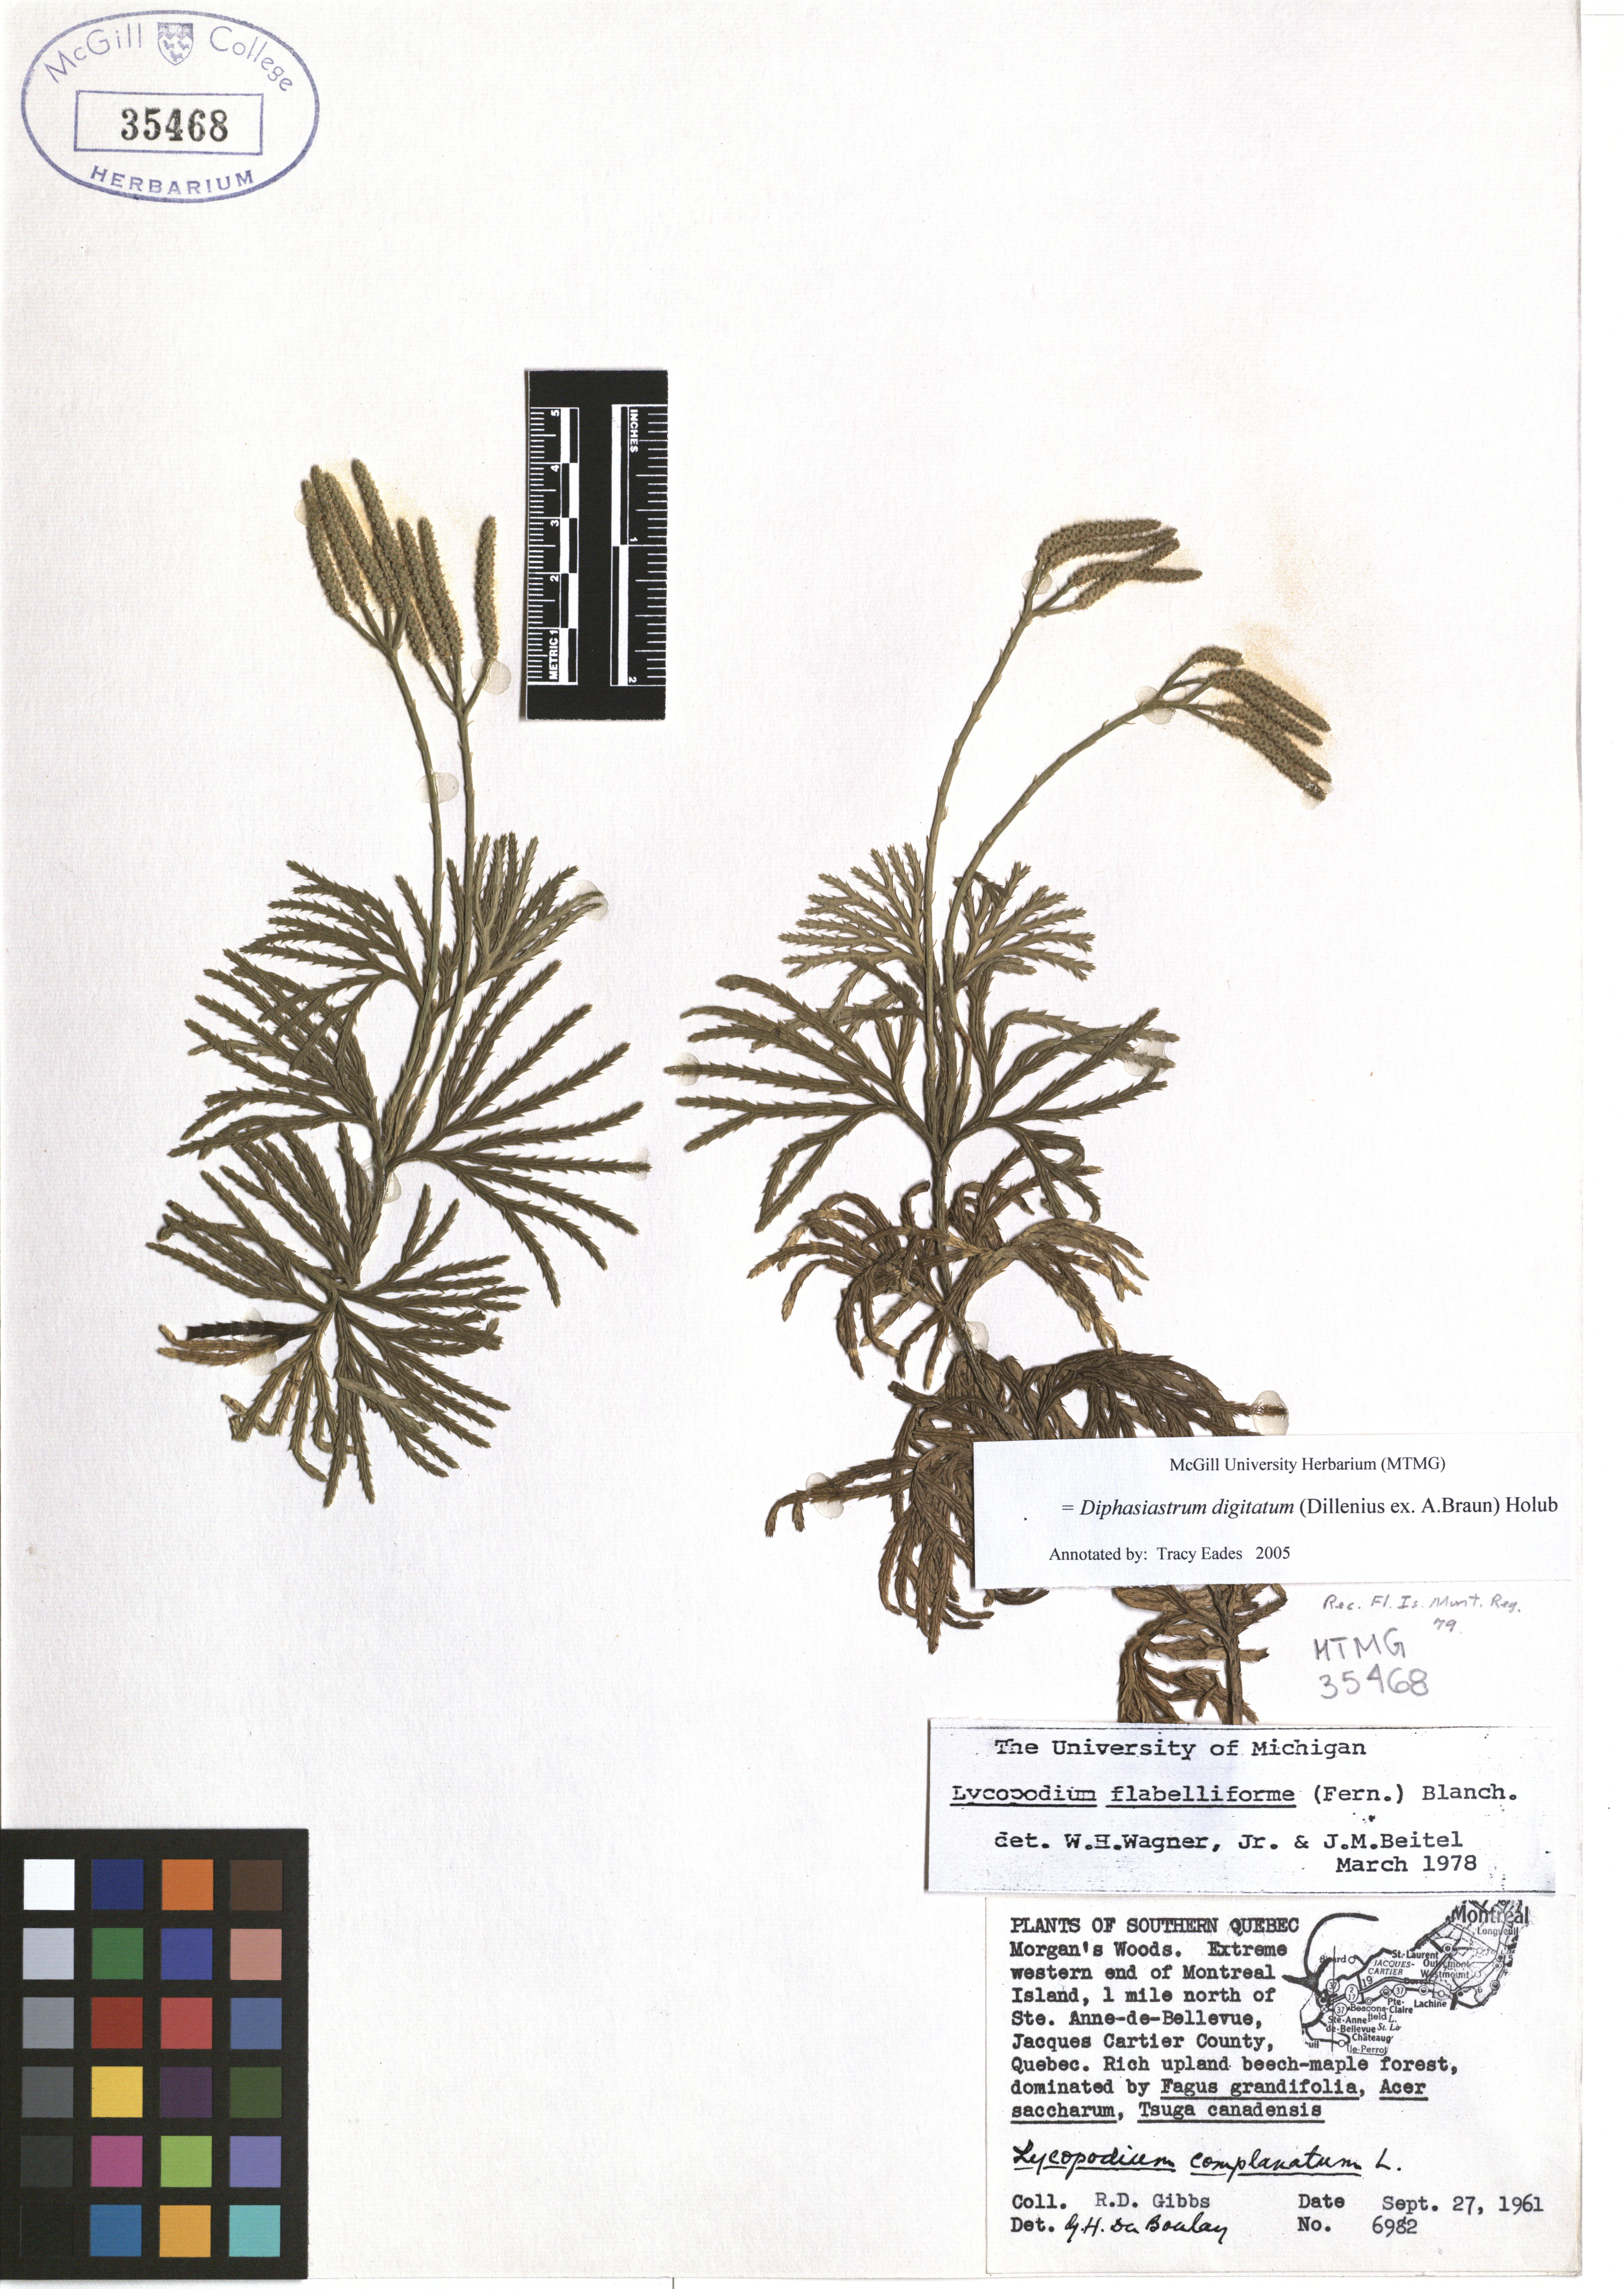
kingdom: Plantae
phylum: Tracheophyta
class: Lycopodiopsida
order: Lycopodiales
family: Lycopodiaceae
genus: Diphasiastrum
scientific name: Diphasiastrum digitatum
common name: Southern running-pine
